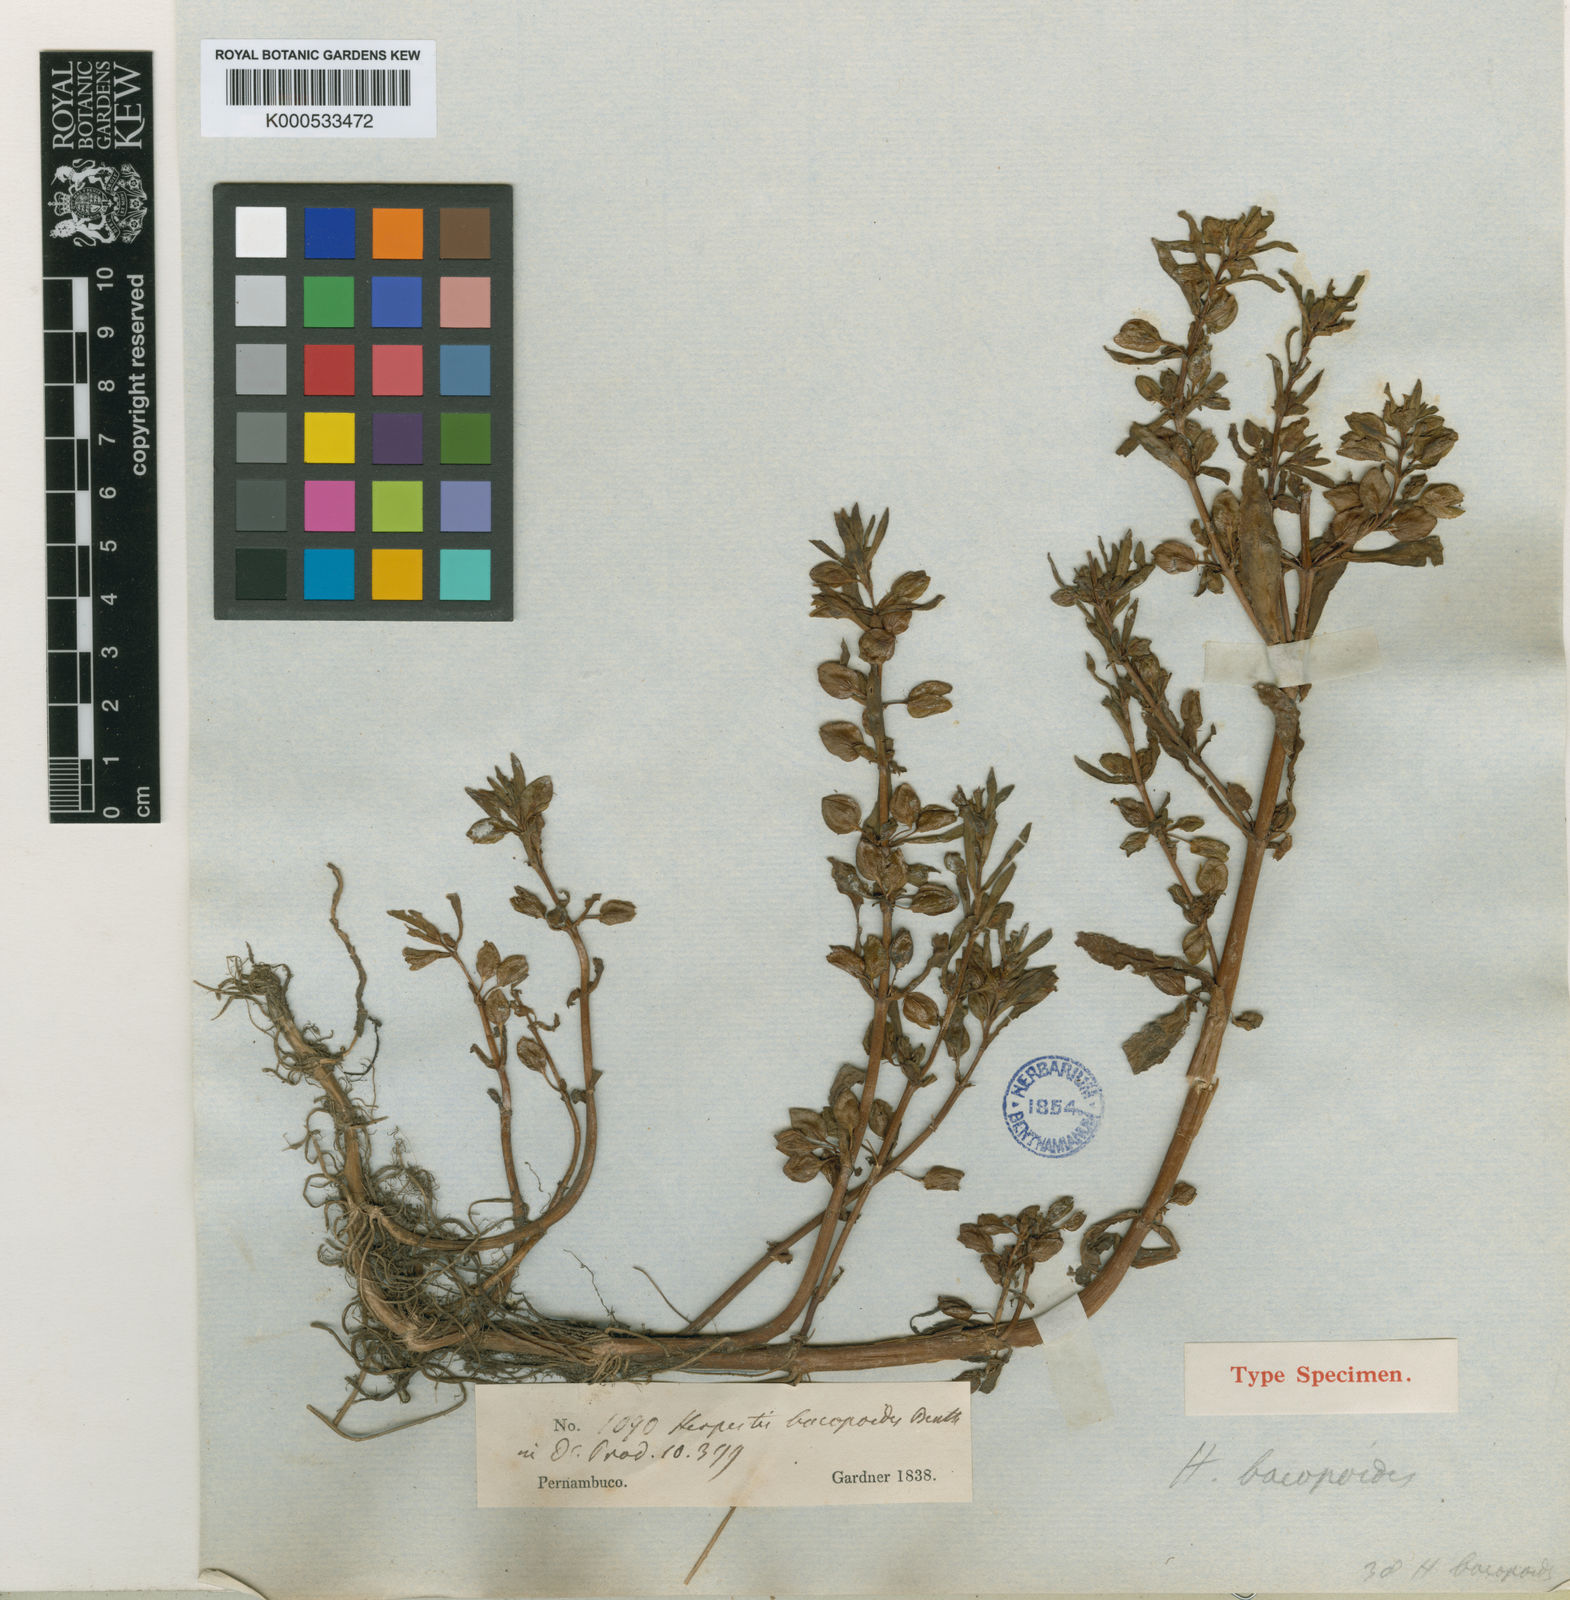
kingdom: Plantae
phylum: Tracheophyta
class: Magnoliopsida
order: Lamiales
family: Plantaginaceae
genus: Bacopa
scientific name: Bacopa aquatica
